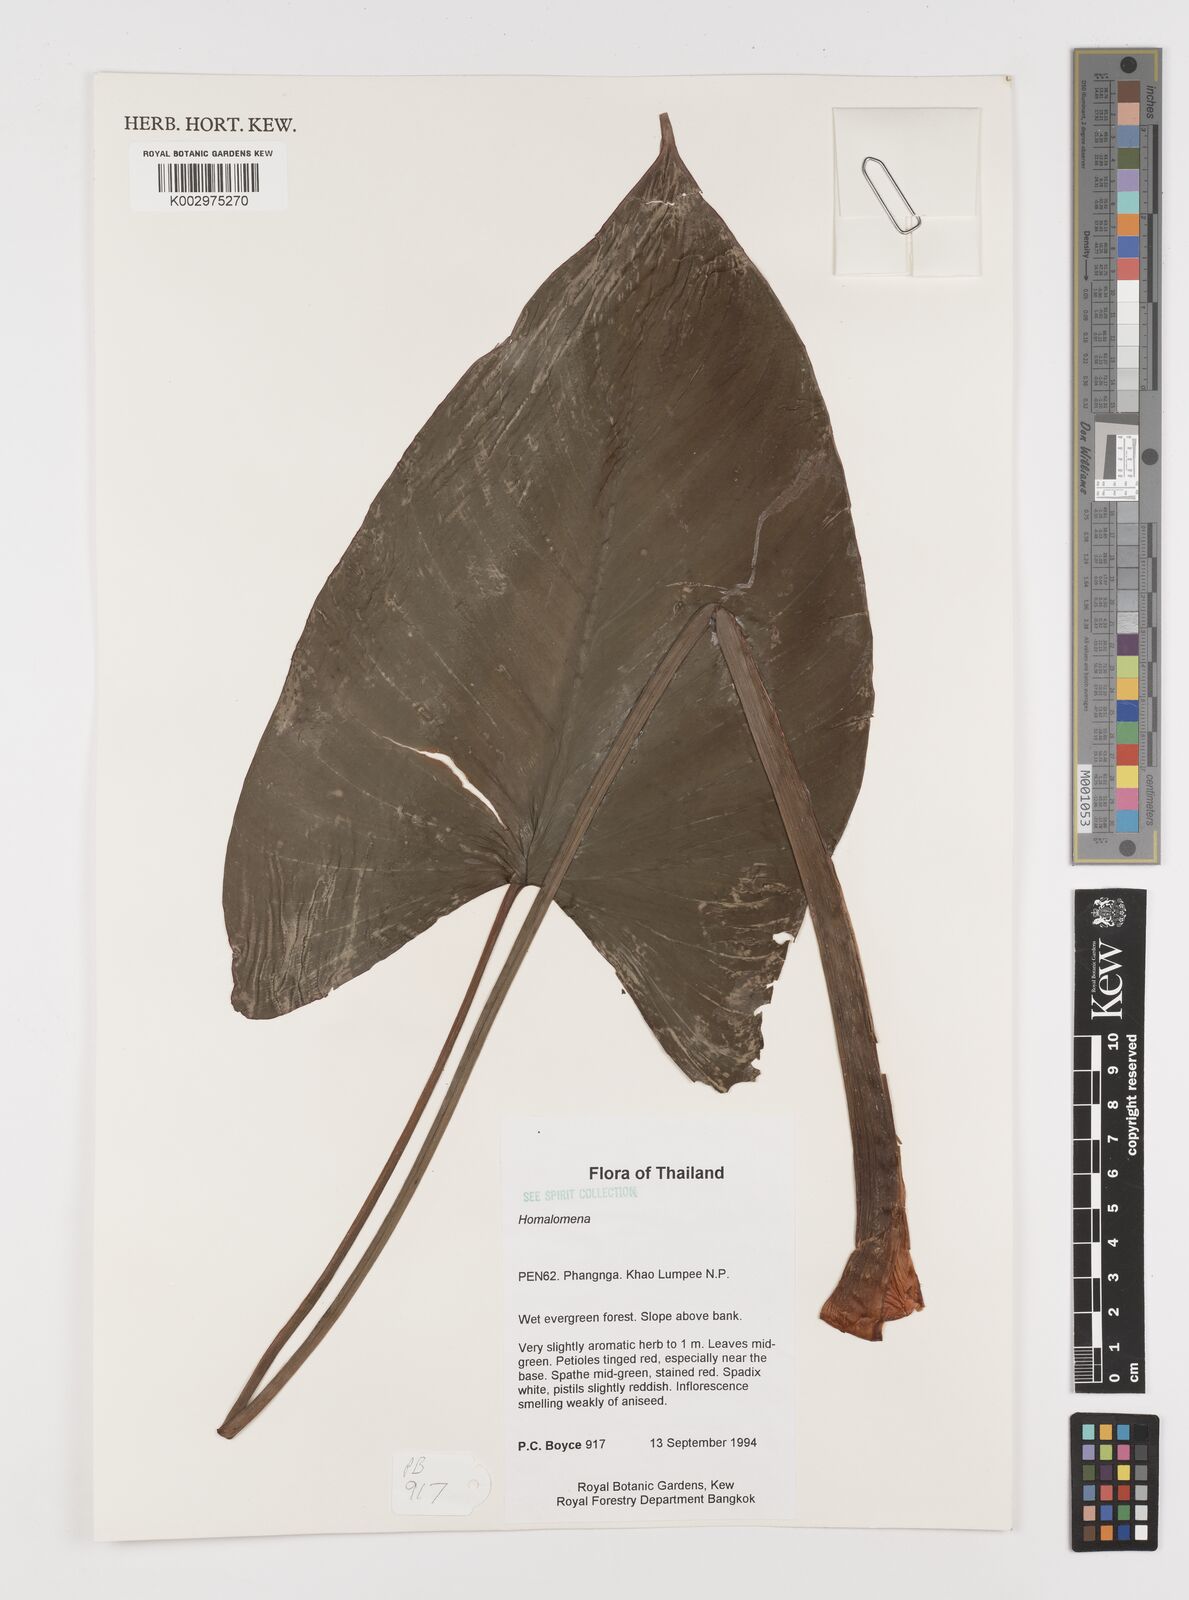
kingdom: Plantae
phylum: Tracheophyta
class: Liliopsida
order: Alismatales
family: Araceae
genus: Homalomena
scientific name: Homalomena
